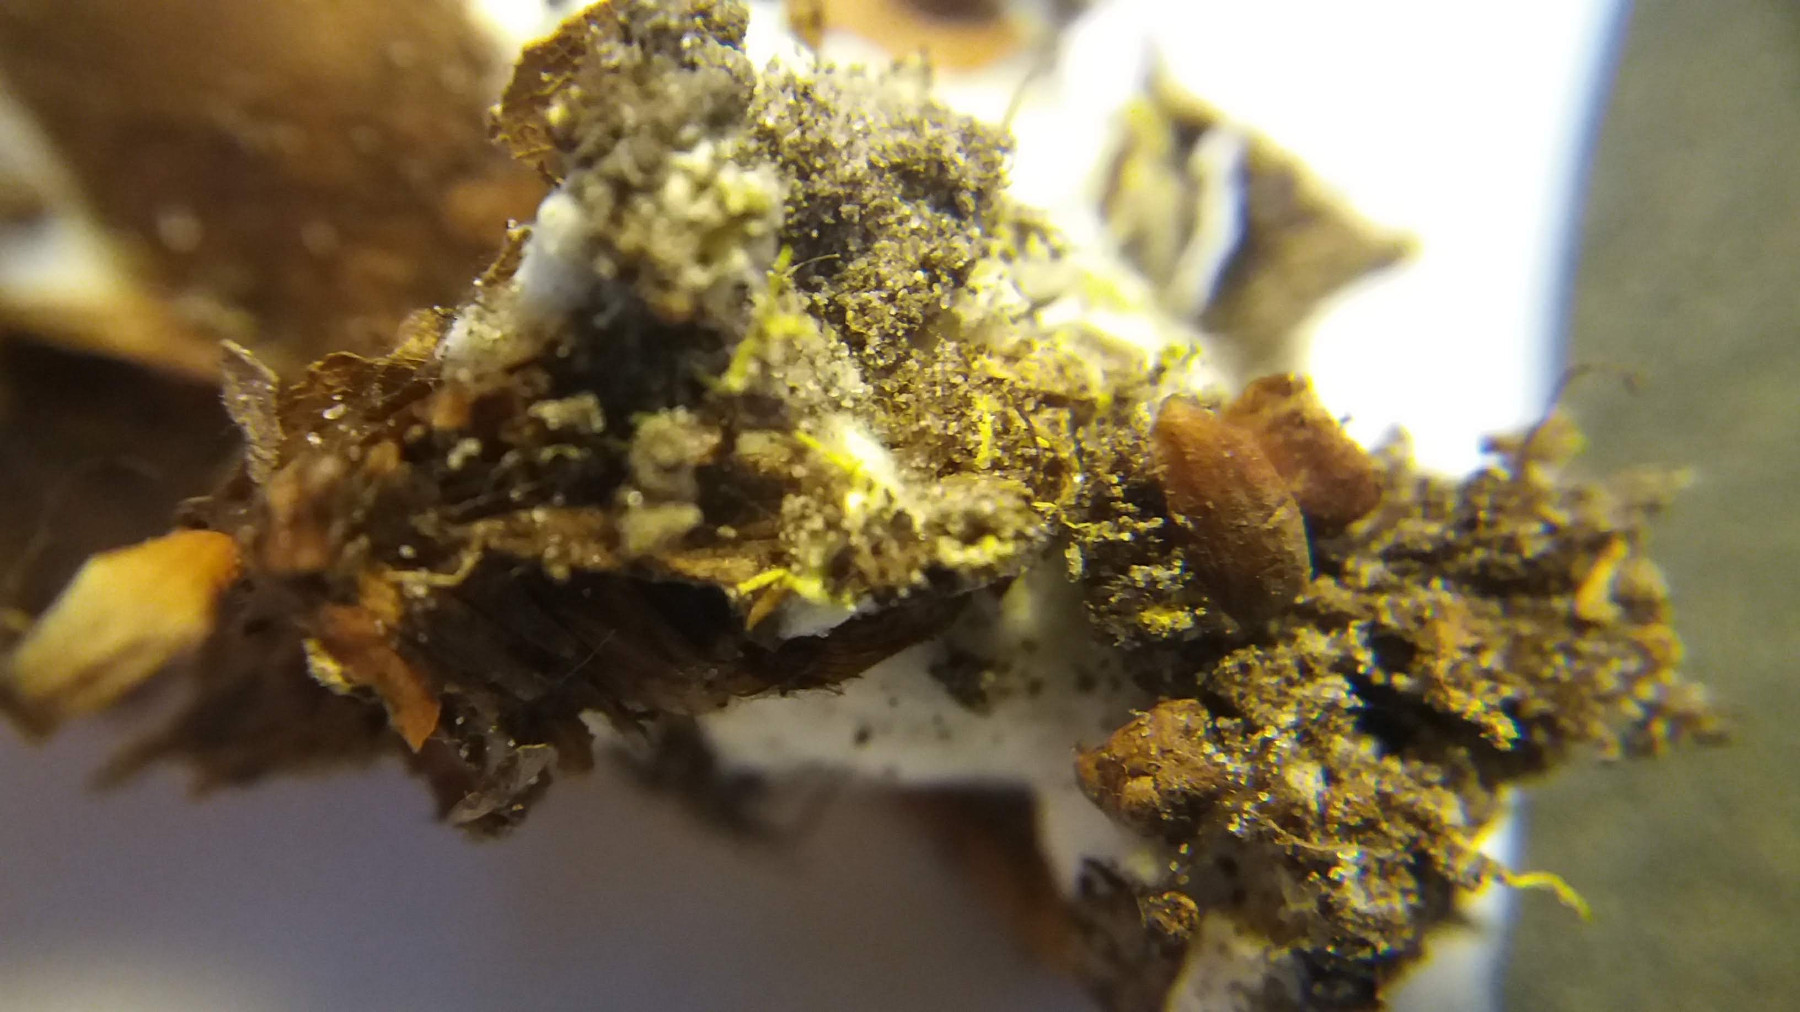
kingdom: Fungi
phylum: Basidiomycota
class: Agaricomycetes
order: Boletales
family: Boletaceae
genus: Xerocomus
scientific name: Xerocomus ferrugineus
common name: vaskeskinds-rørhat
